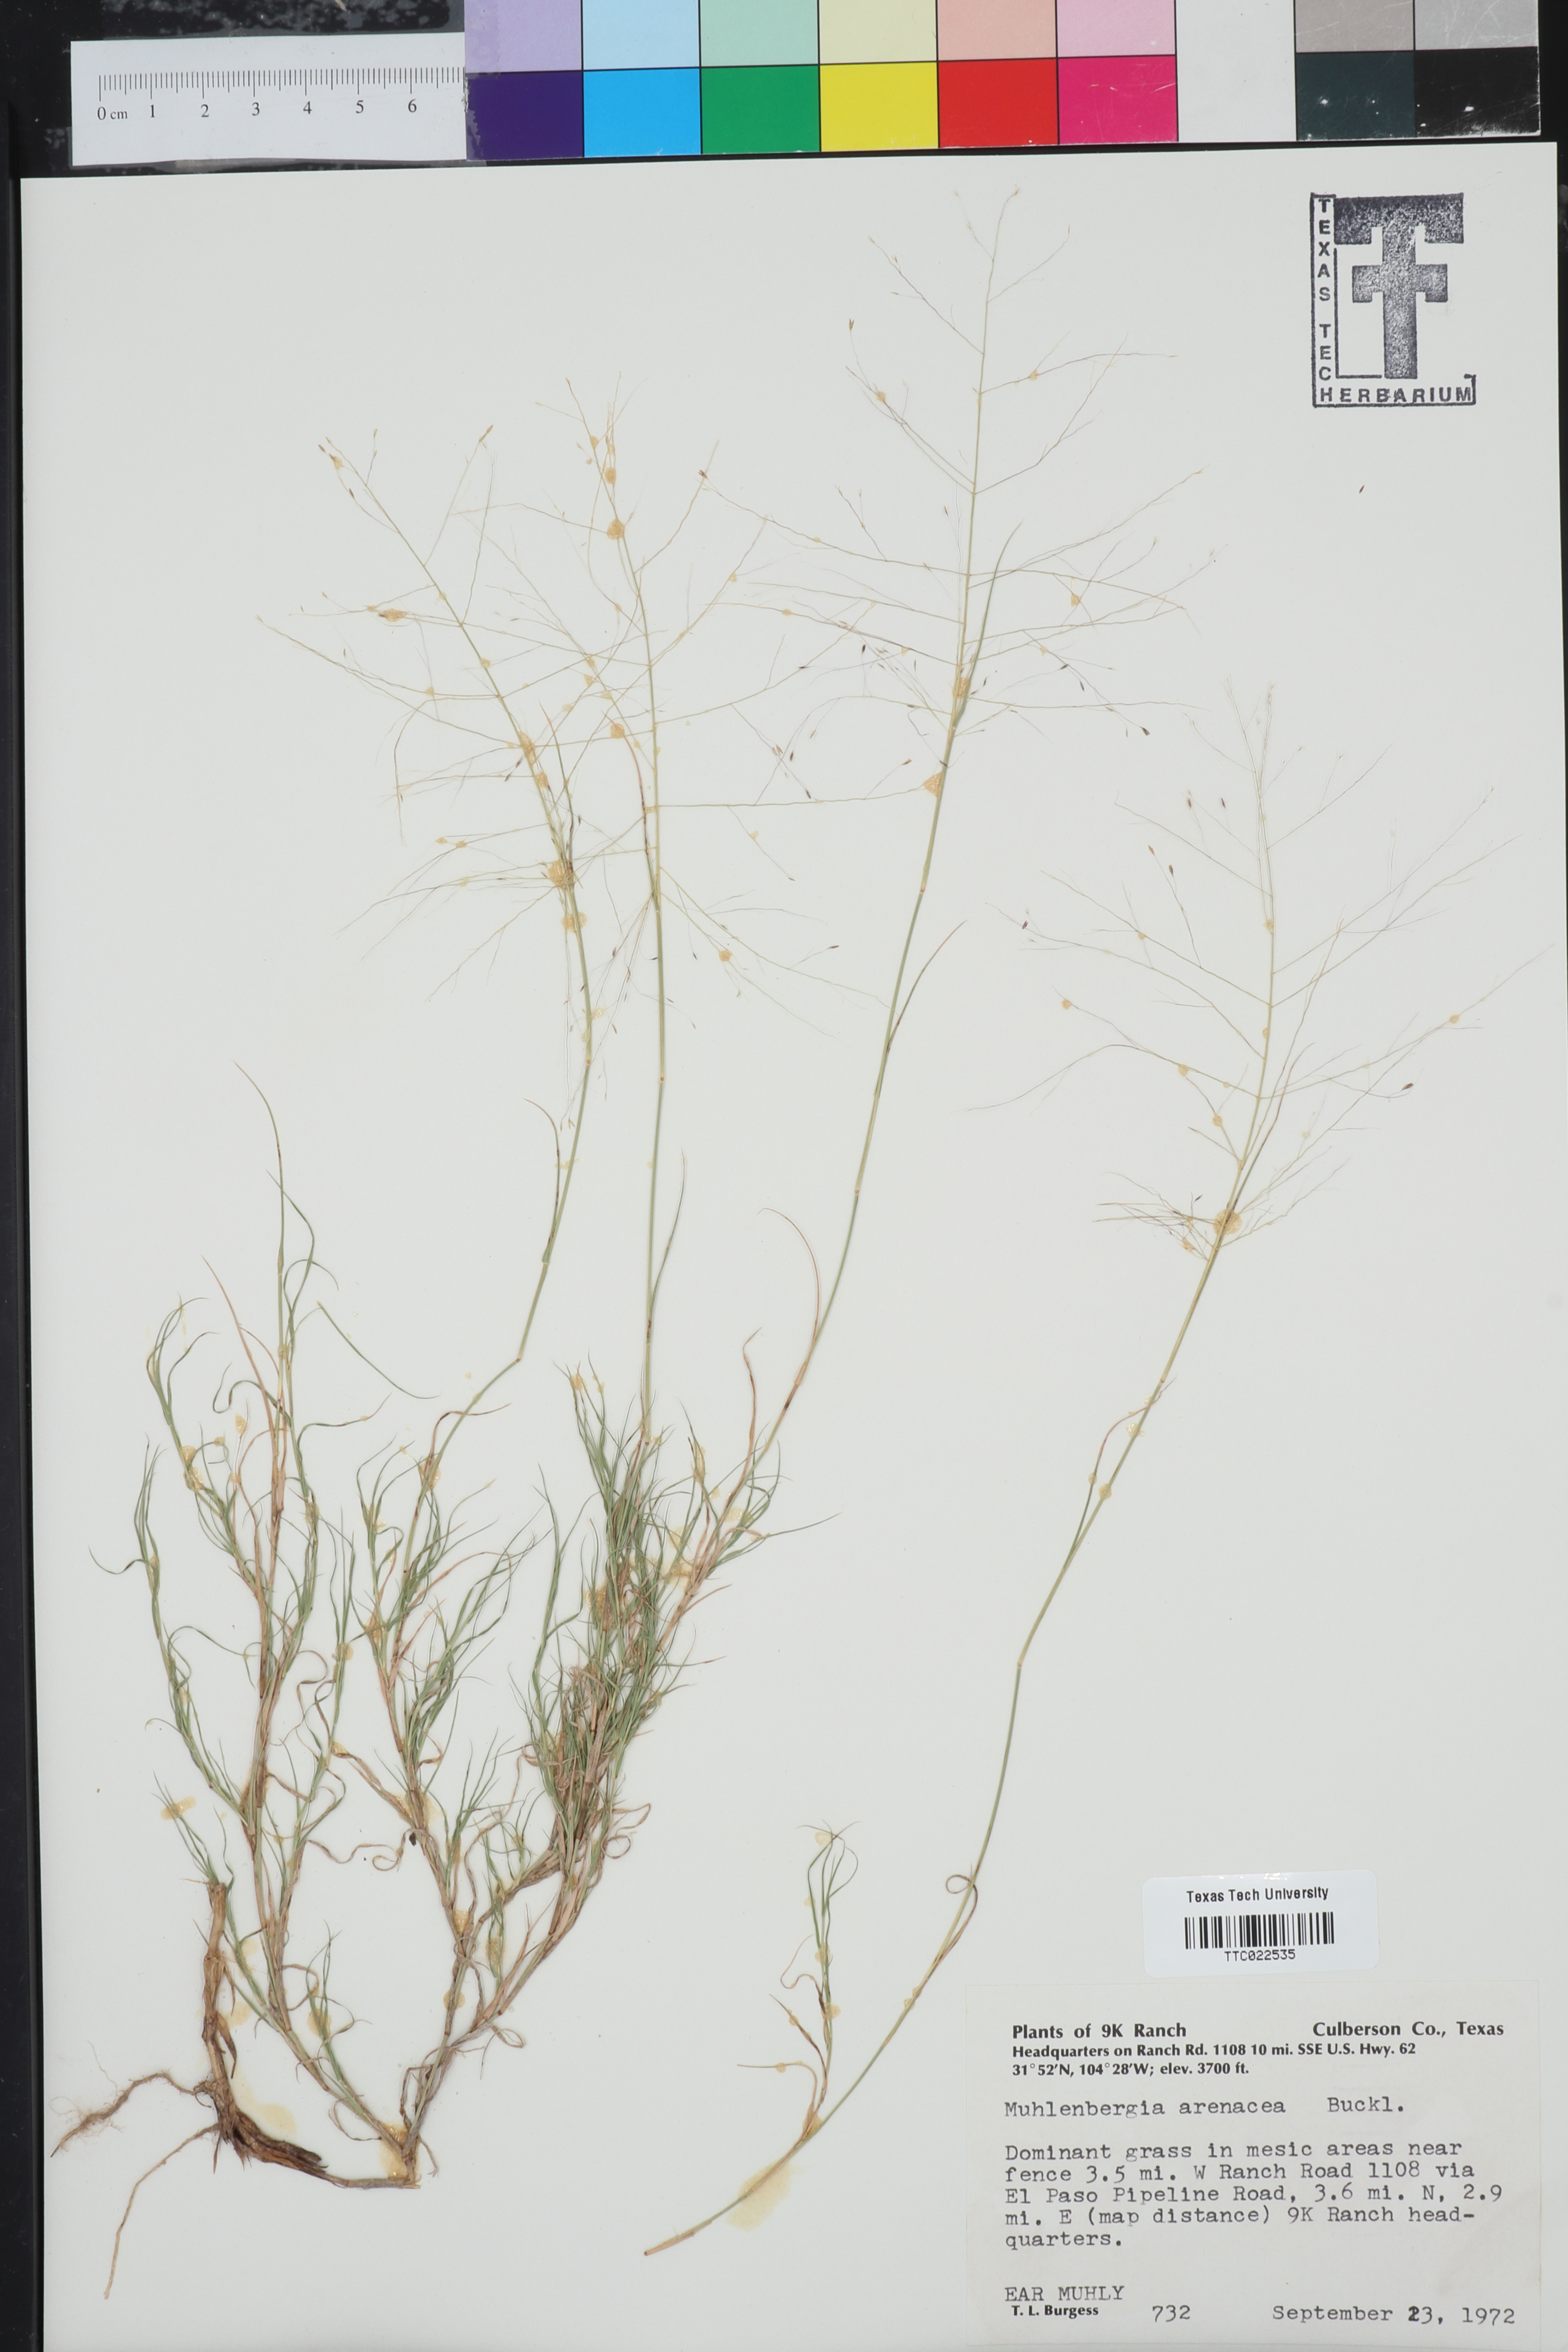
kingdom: Plantae
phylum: Tracheophyta
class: Liliopsida
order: Poales
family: Poaceae
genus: Muhlenbergia
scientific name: Muhlenbergia arenacea
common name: Ear muhly
